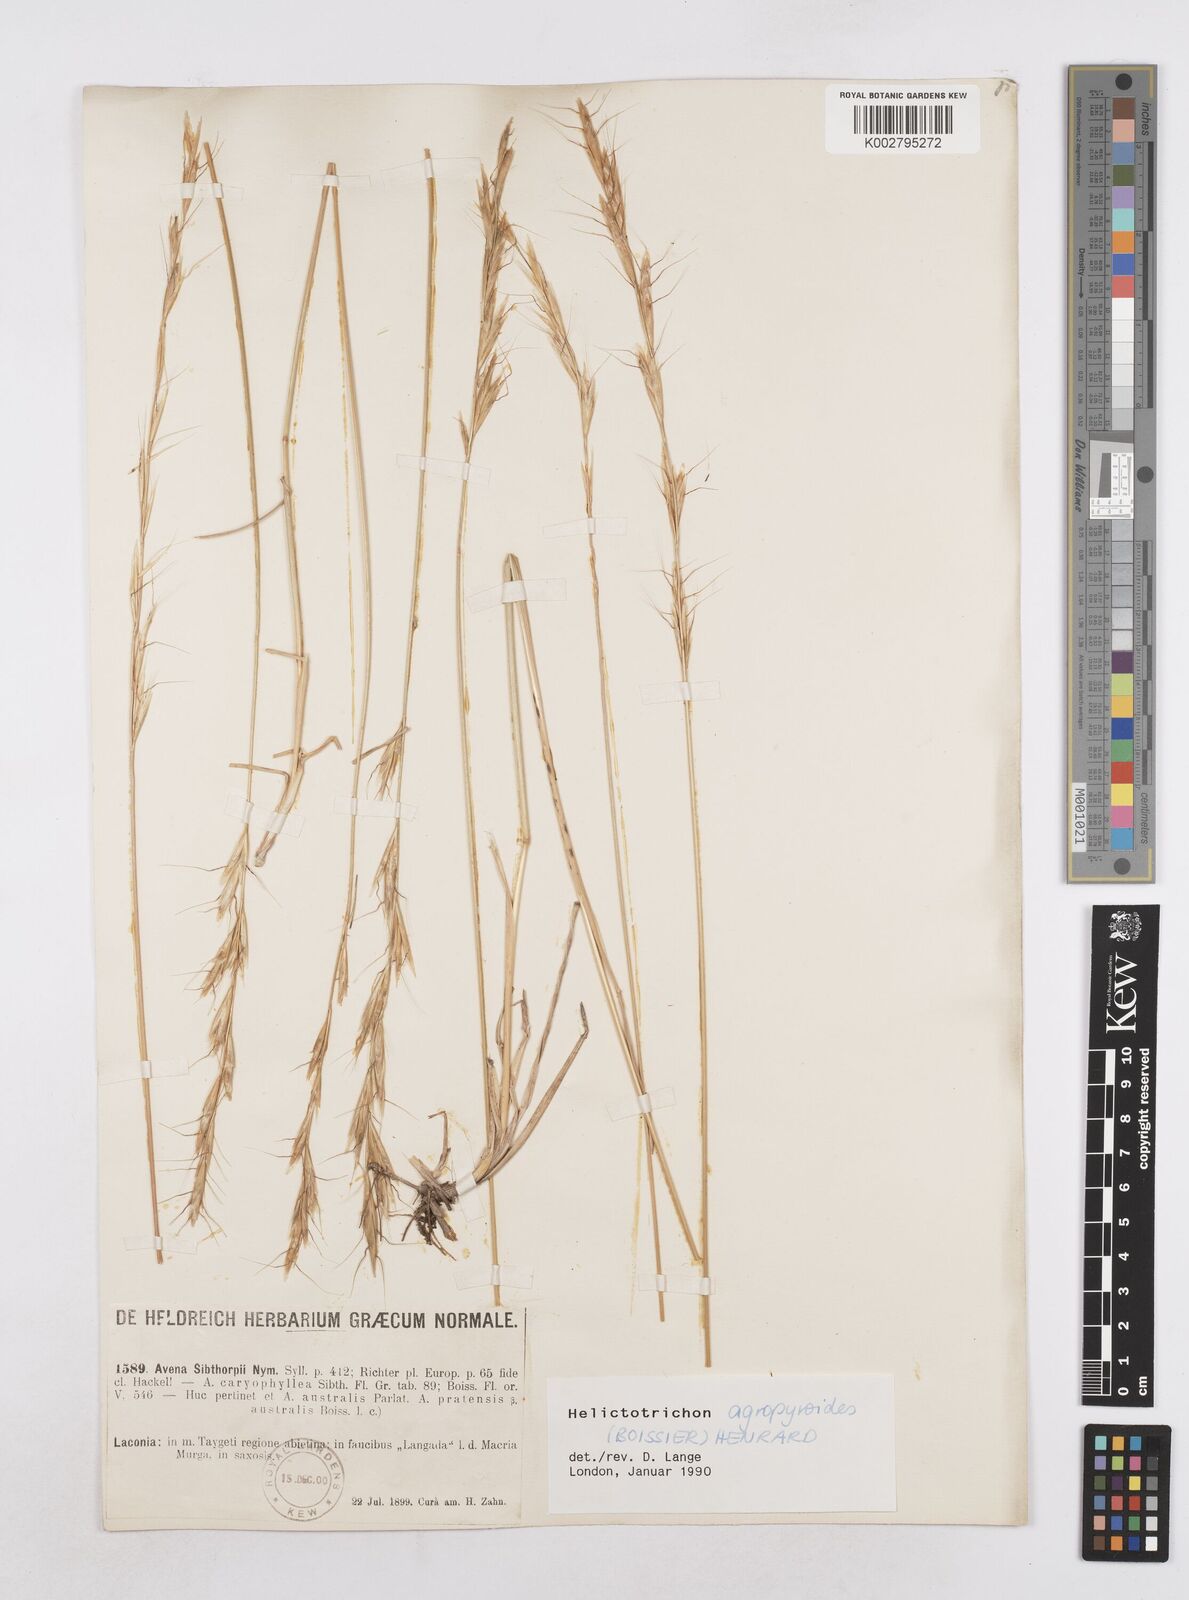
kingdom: Plantae
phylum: Tracheophyta
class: Liliopsida
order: Poales
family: Poaceae
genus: Helictochloa
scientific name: Helictochloa agropyroides
